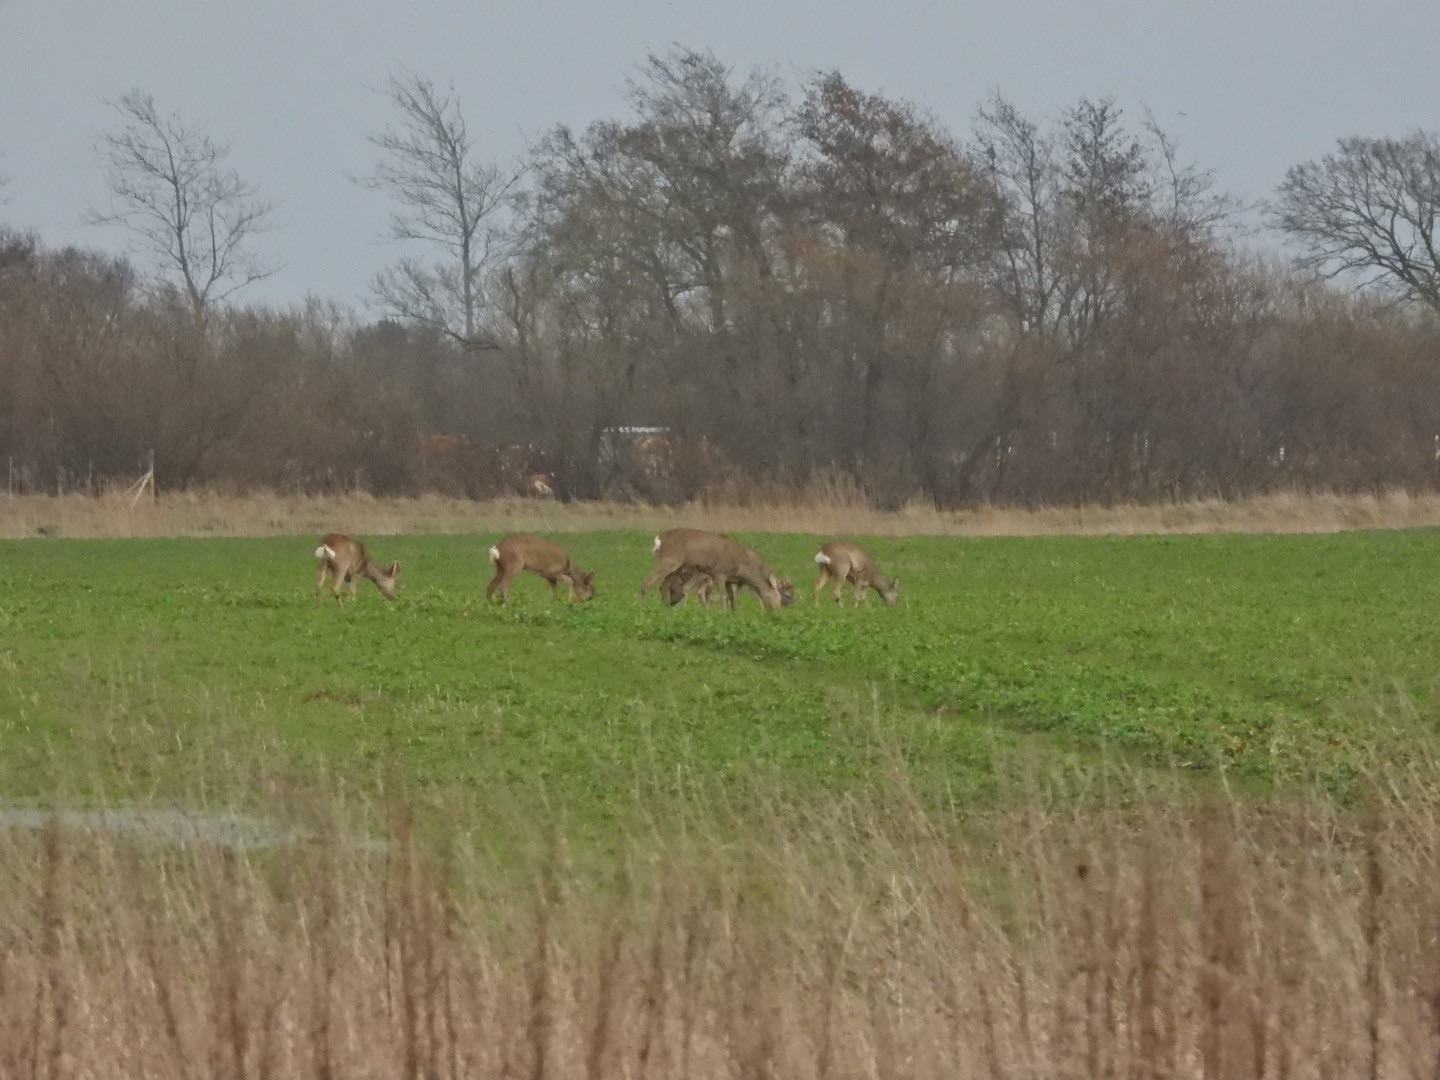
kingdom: Animalia
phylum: Chordata
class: Mammalia
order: Artiodactyla
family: Cervidae
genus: Capreolus
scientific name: Capreolus capreolus
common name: Rådyr
